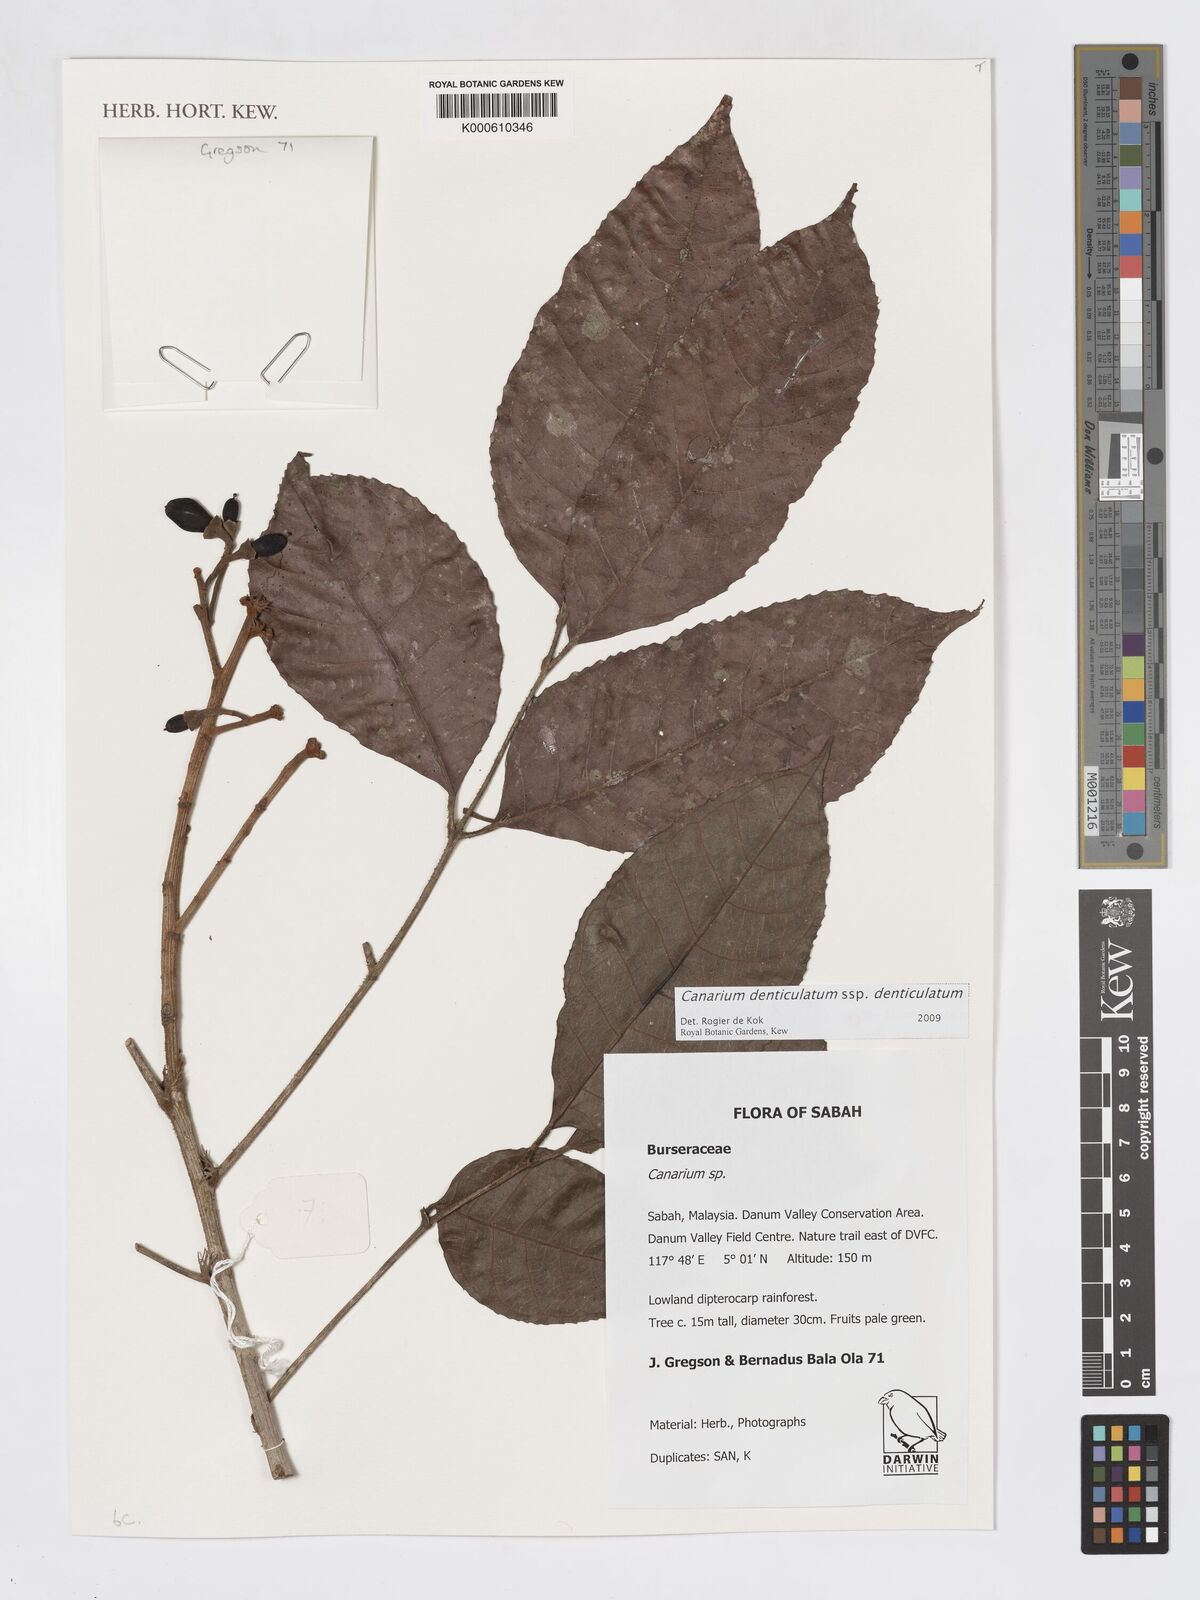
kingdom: Plantae
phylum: Tracheophyta
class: Magnoliopsida
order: Sapindales
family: Burseraceae
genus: Canarium
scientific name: Canarium denticulatum
